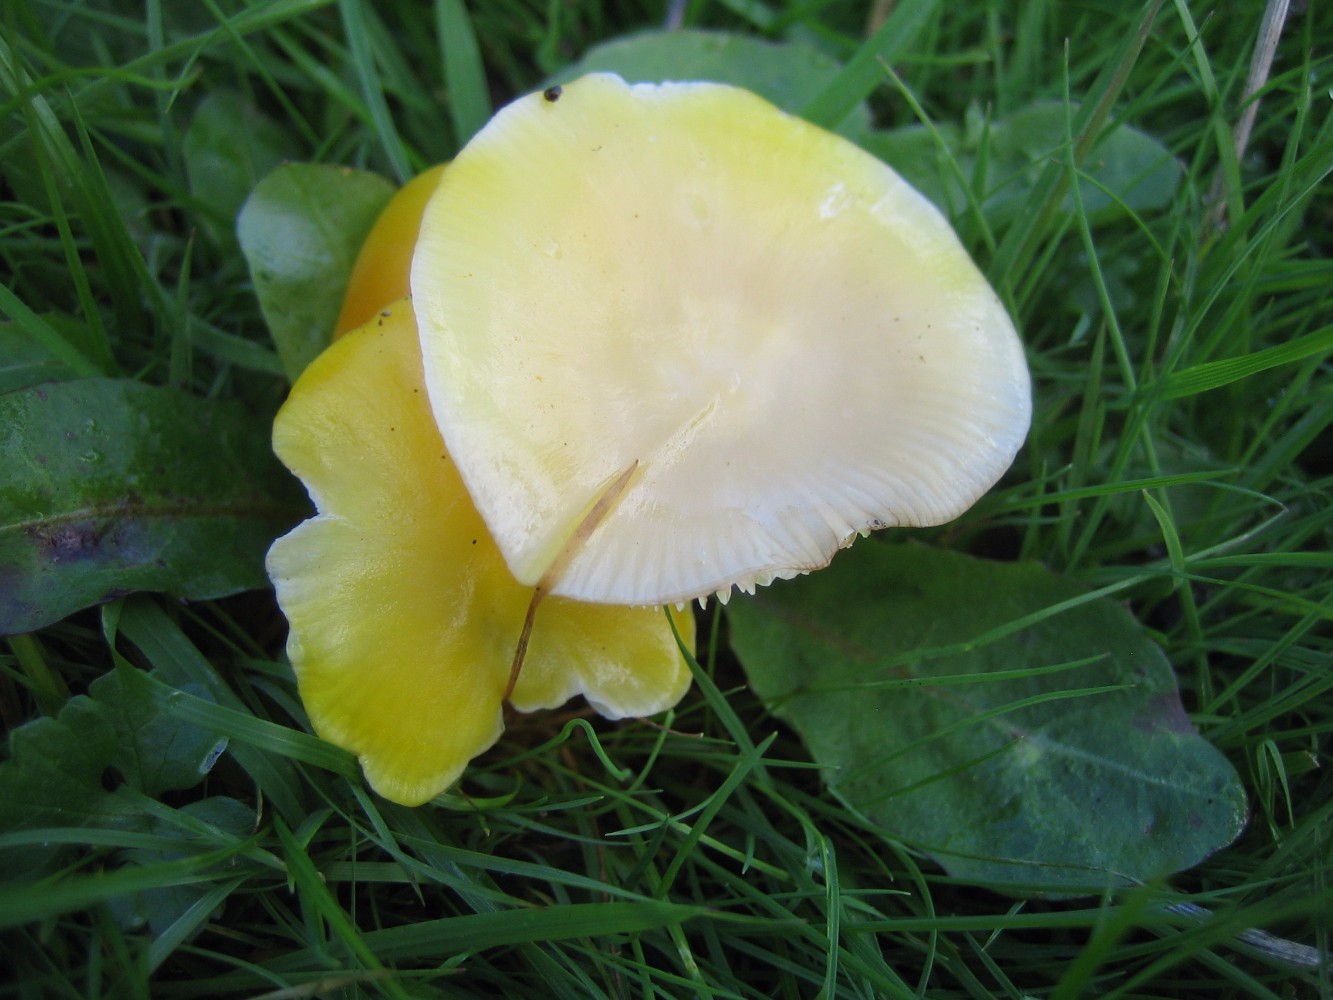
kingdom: Fungi
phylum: Basidiomycota
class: Agaricomycetes
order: Agaricales
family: Hygrophoraceae
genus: Hygrocybe
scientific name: Hygrocybe chlorophana
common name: gul vokshat
